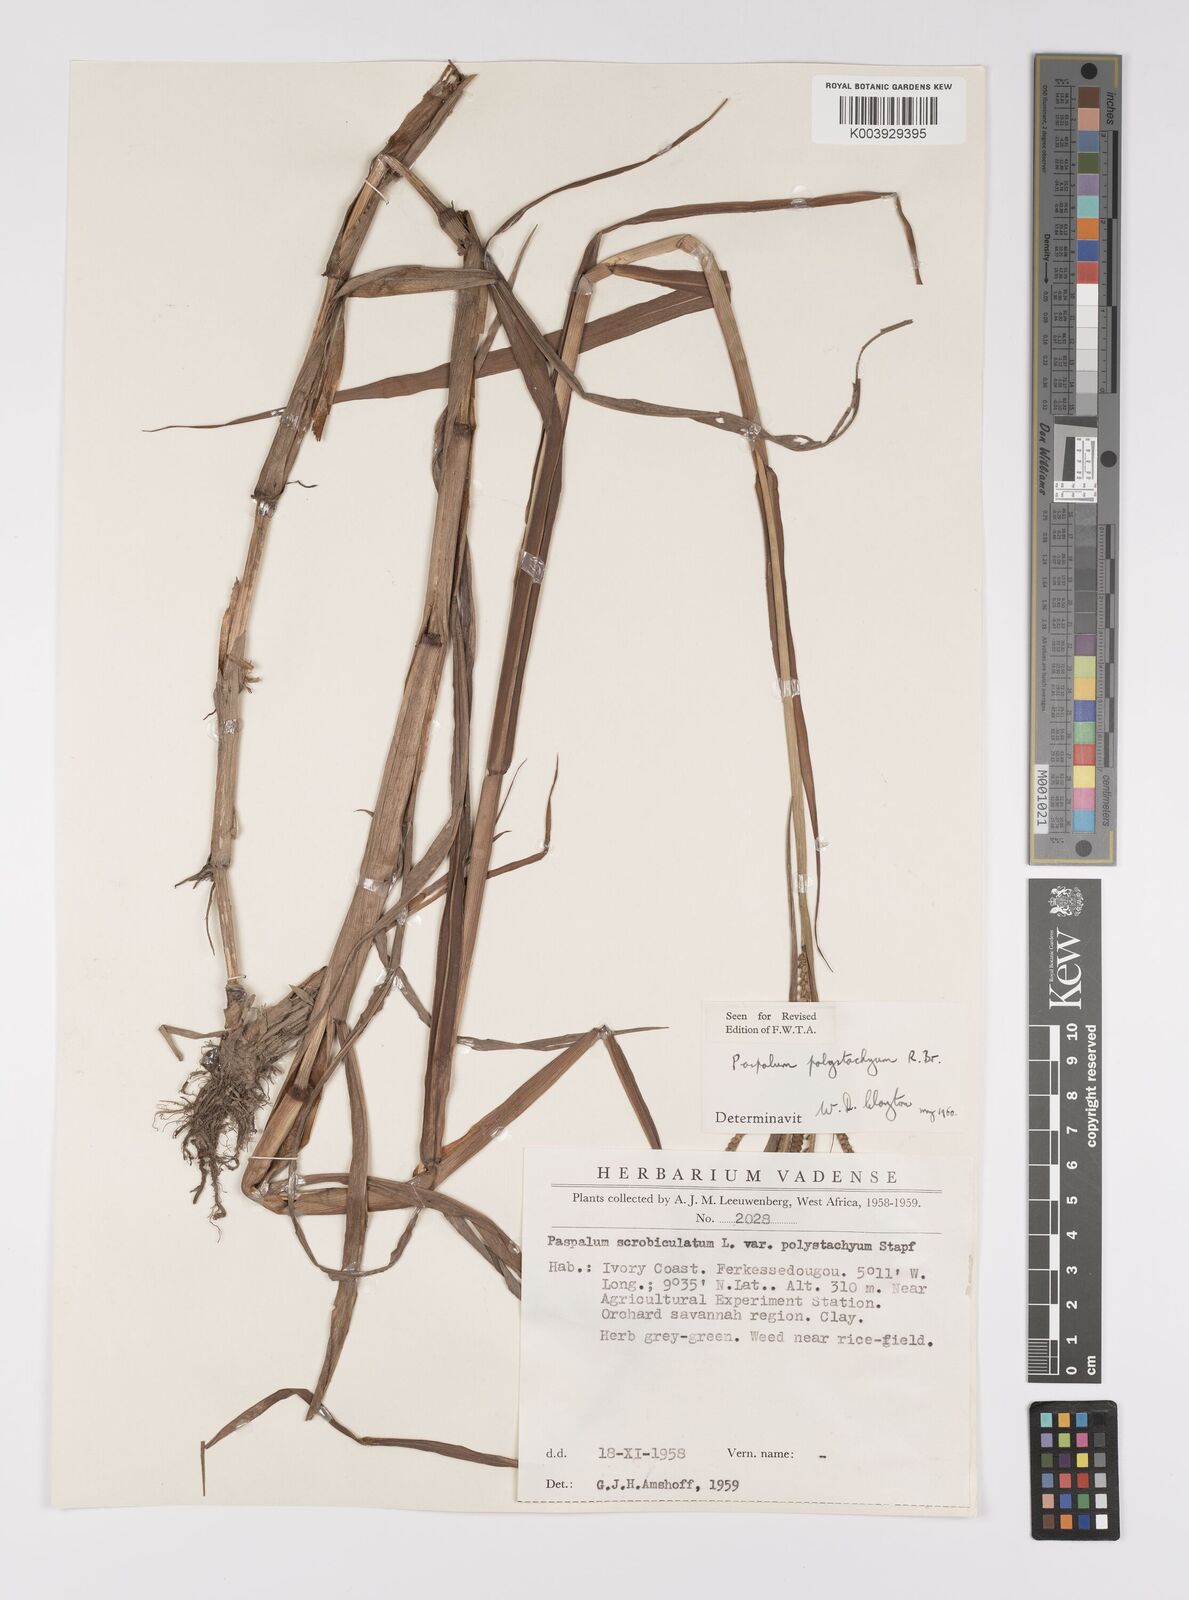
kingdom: Plantae
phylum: Tracheophyta
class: Liliopsida
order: Poales
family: Poaceae
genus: Paspalum
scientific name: Paspalum scrobiculatum
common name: Kodo millet
